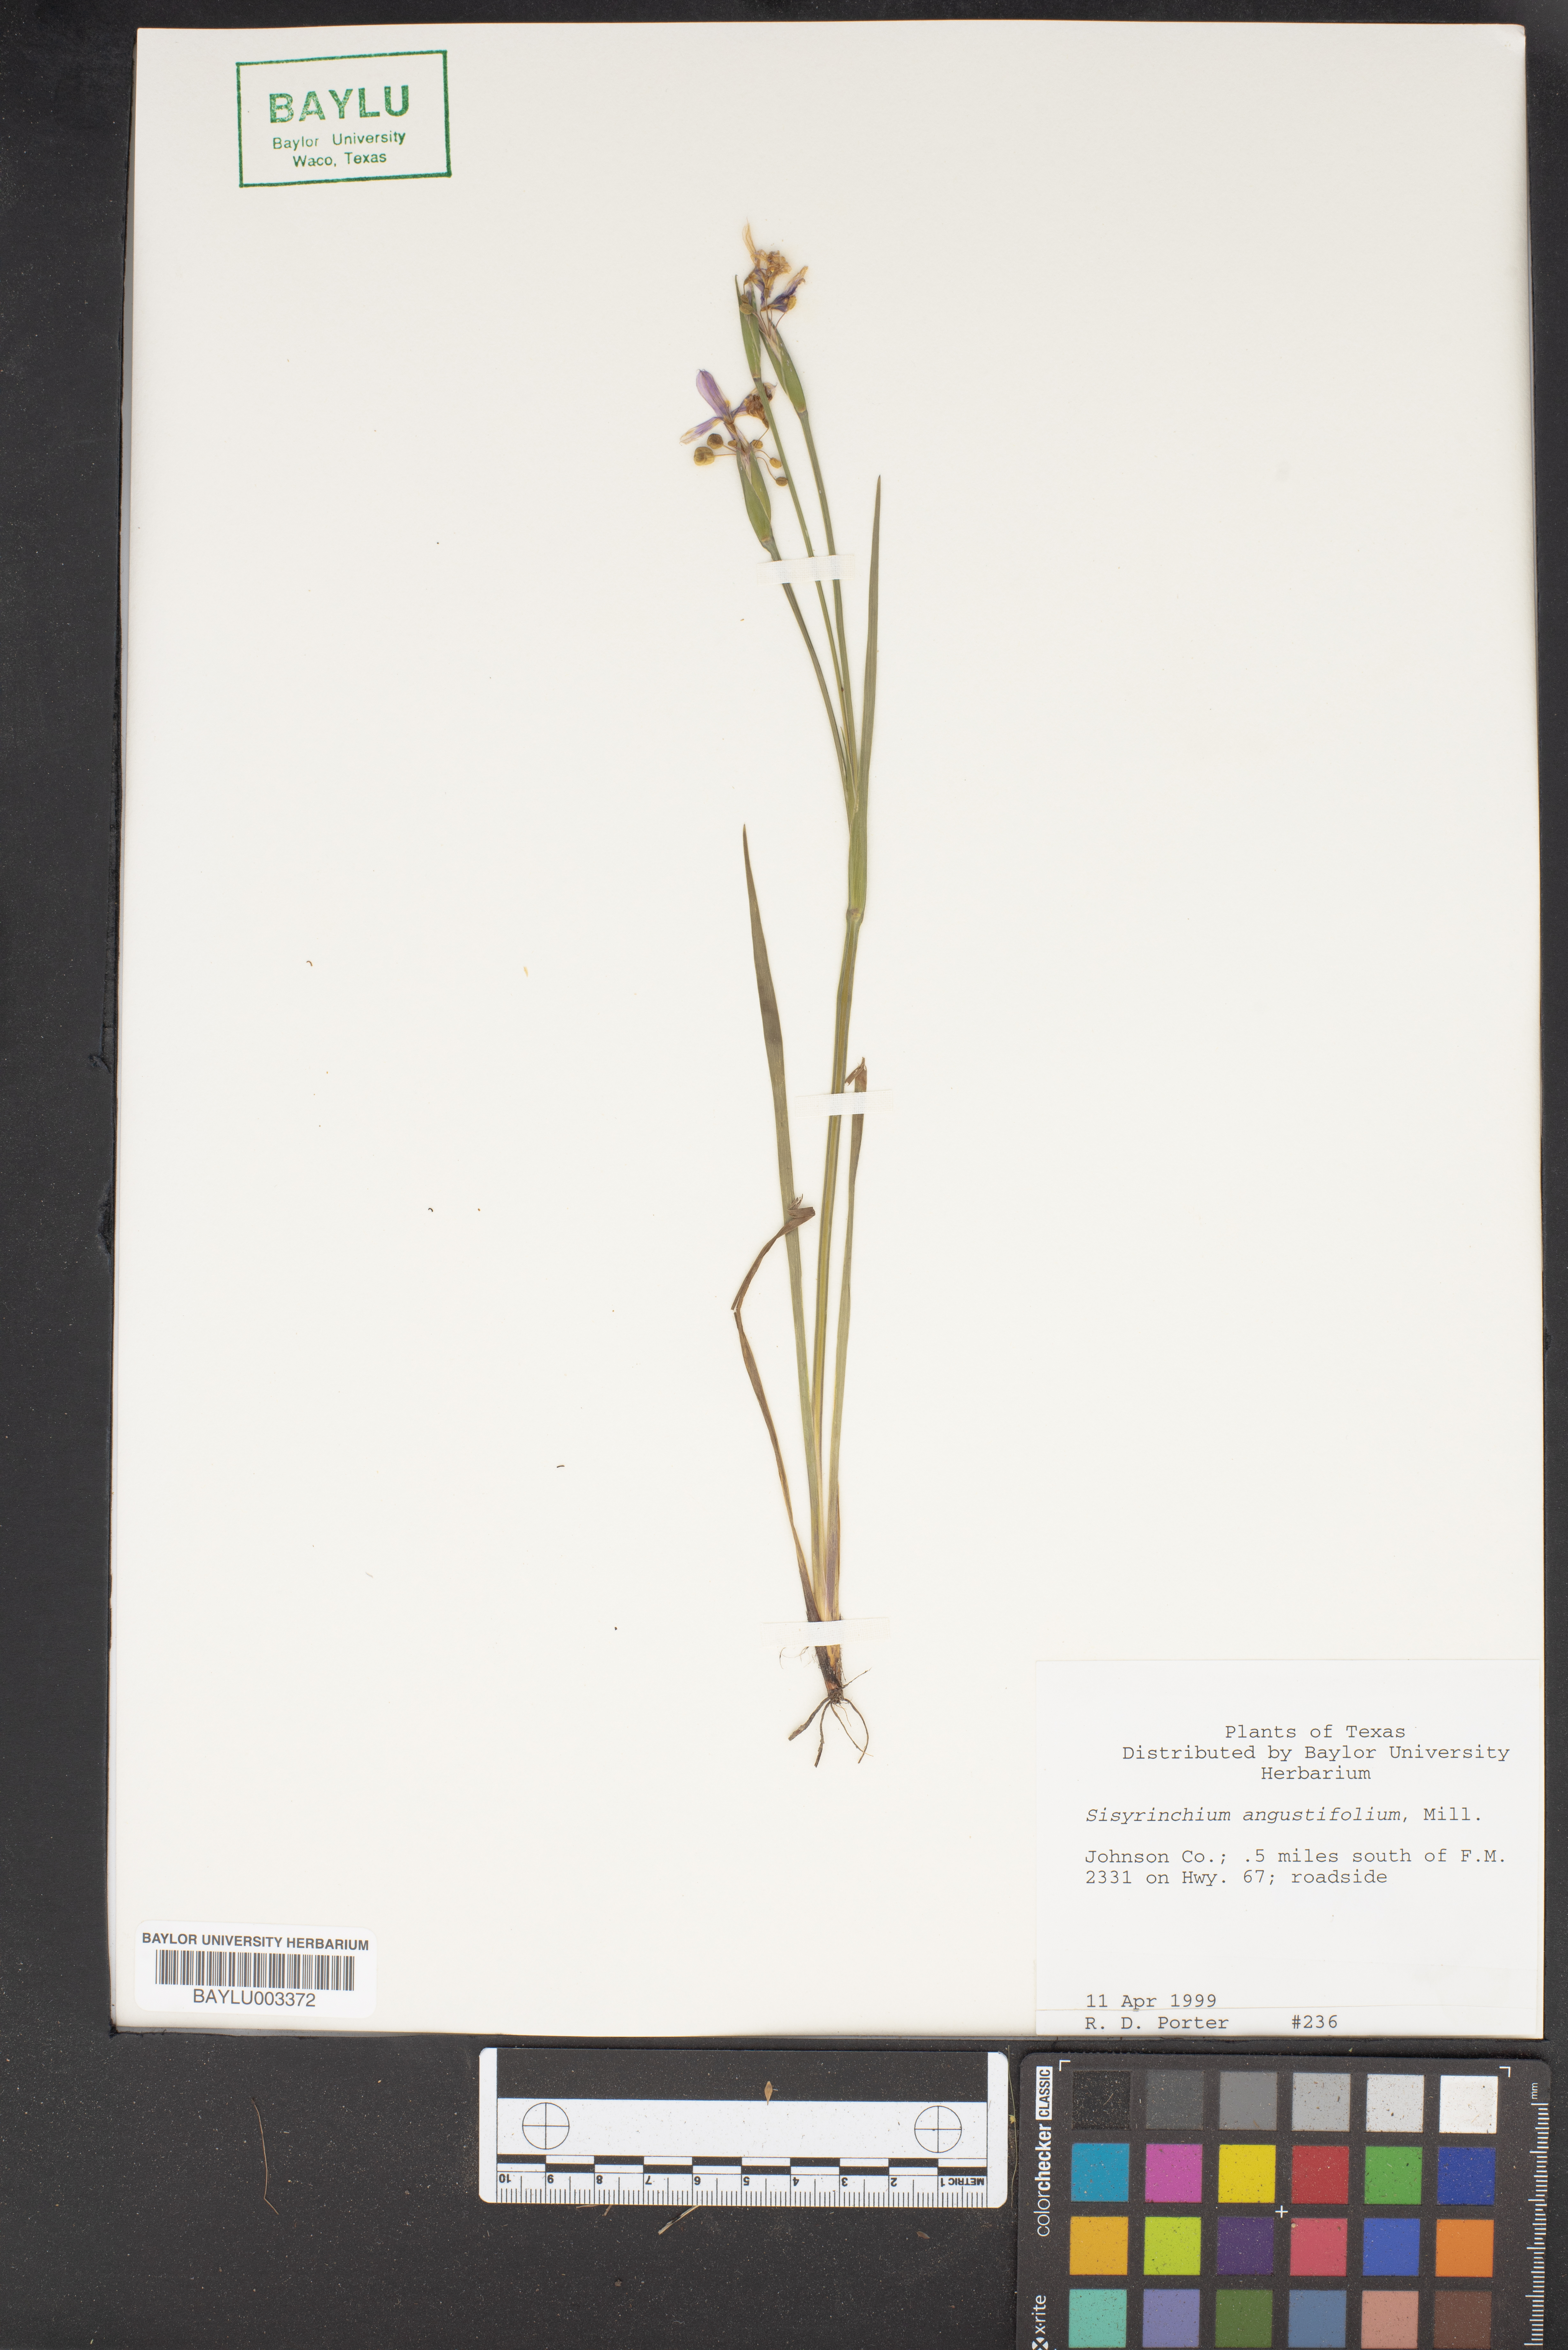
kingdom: Plantae
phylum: Tracheophyta
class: Liliopsida
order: Asparagales
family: Iridaceae
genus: Sisyrinchium
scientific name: Sisyrinchium angustifolium
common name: Narrow-leaf blue-eyed-grass
